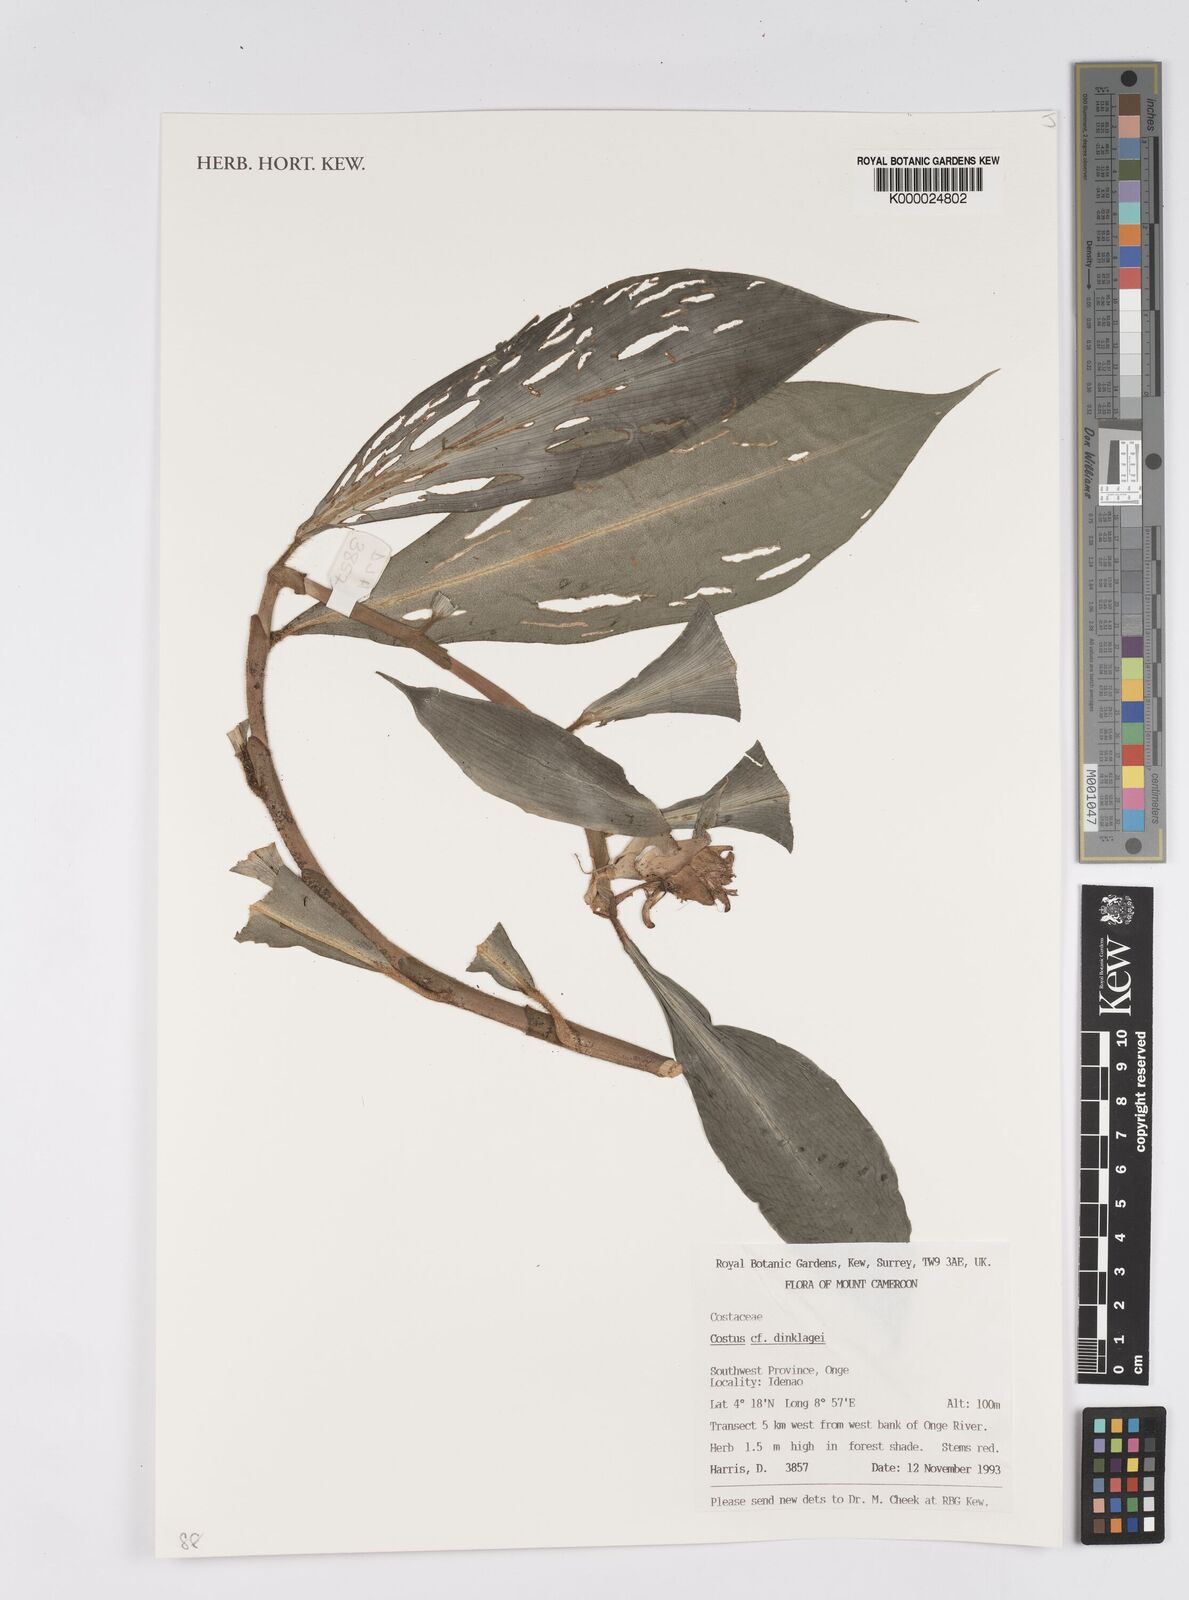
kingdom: Plantae
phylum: Tracheophyta
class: Liliopsida
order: Zingiberales
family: Costaceae
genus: Costus
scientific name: Costus dinklagei
